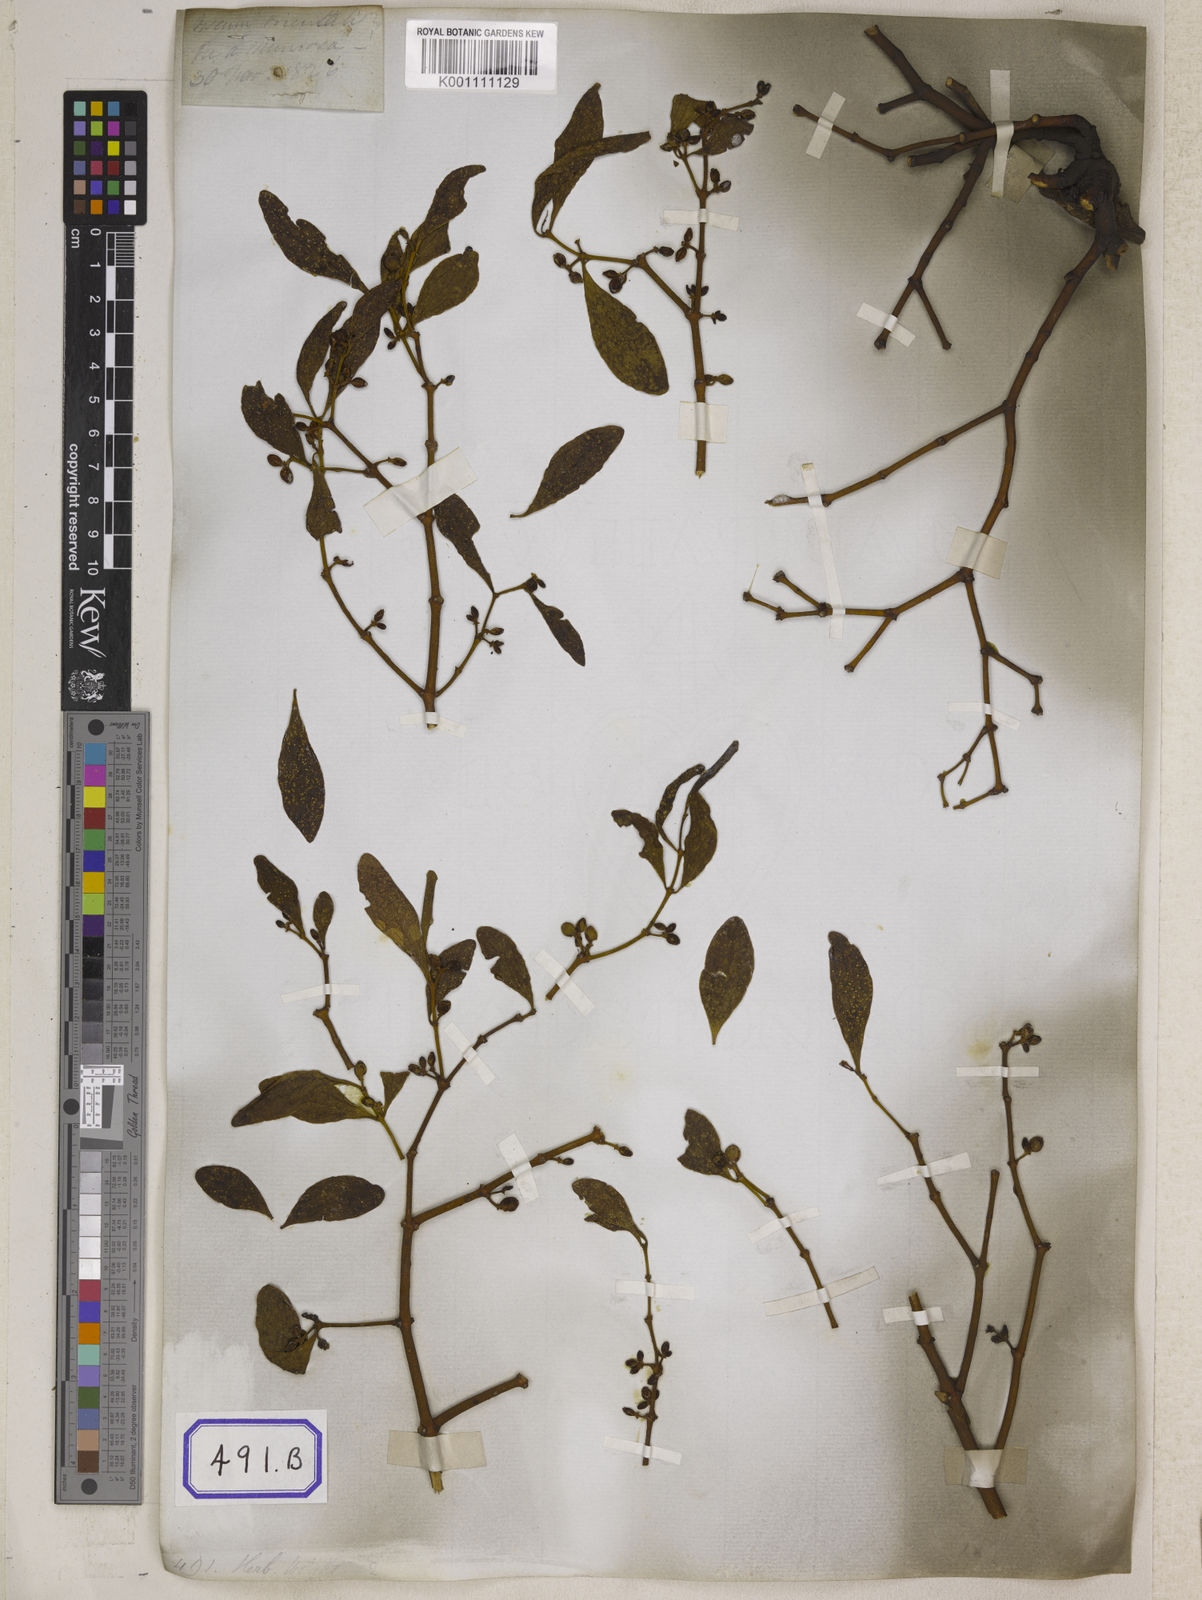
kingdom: Plantae
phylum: Tracheophyta
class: Magnoliopsida
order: Santalales
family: Viscaceae
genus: Viscum
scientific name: Viscum
